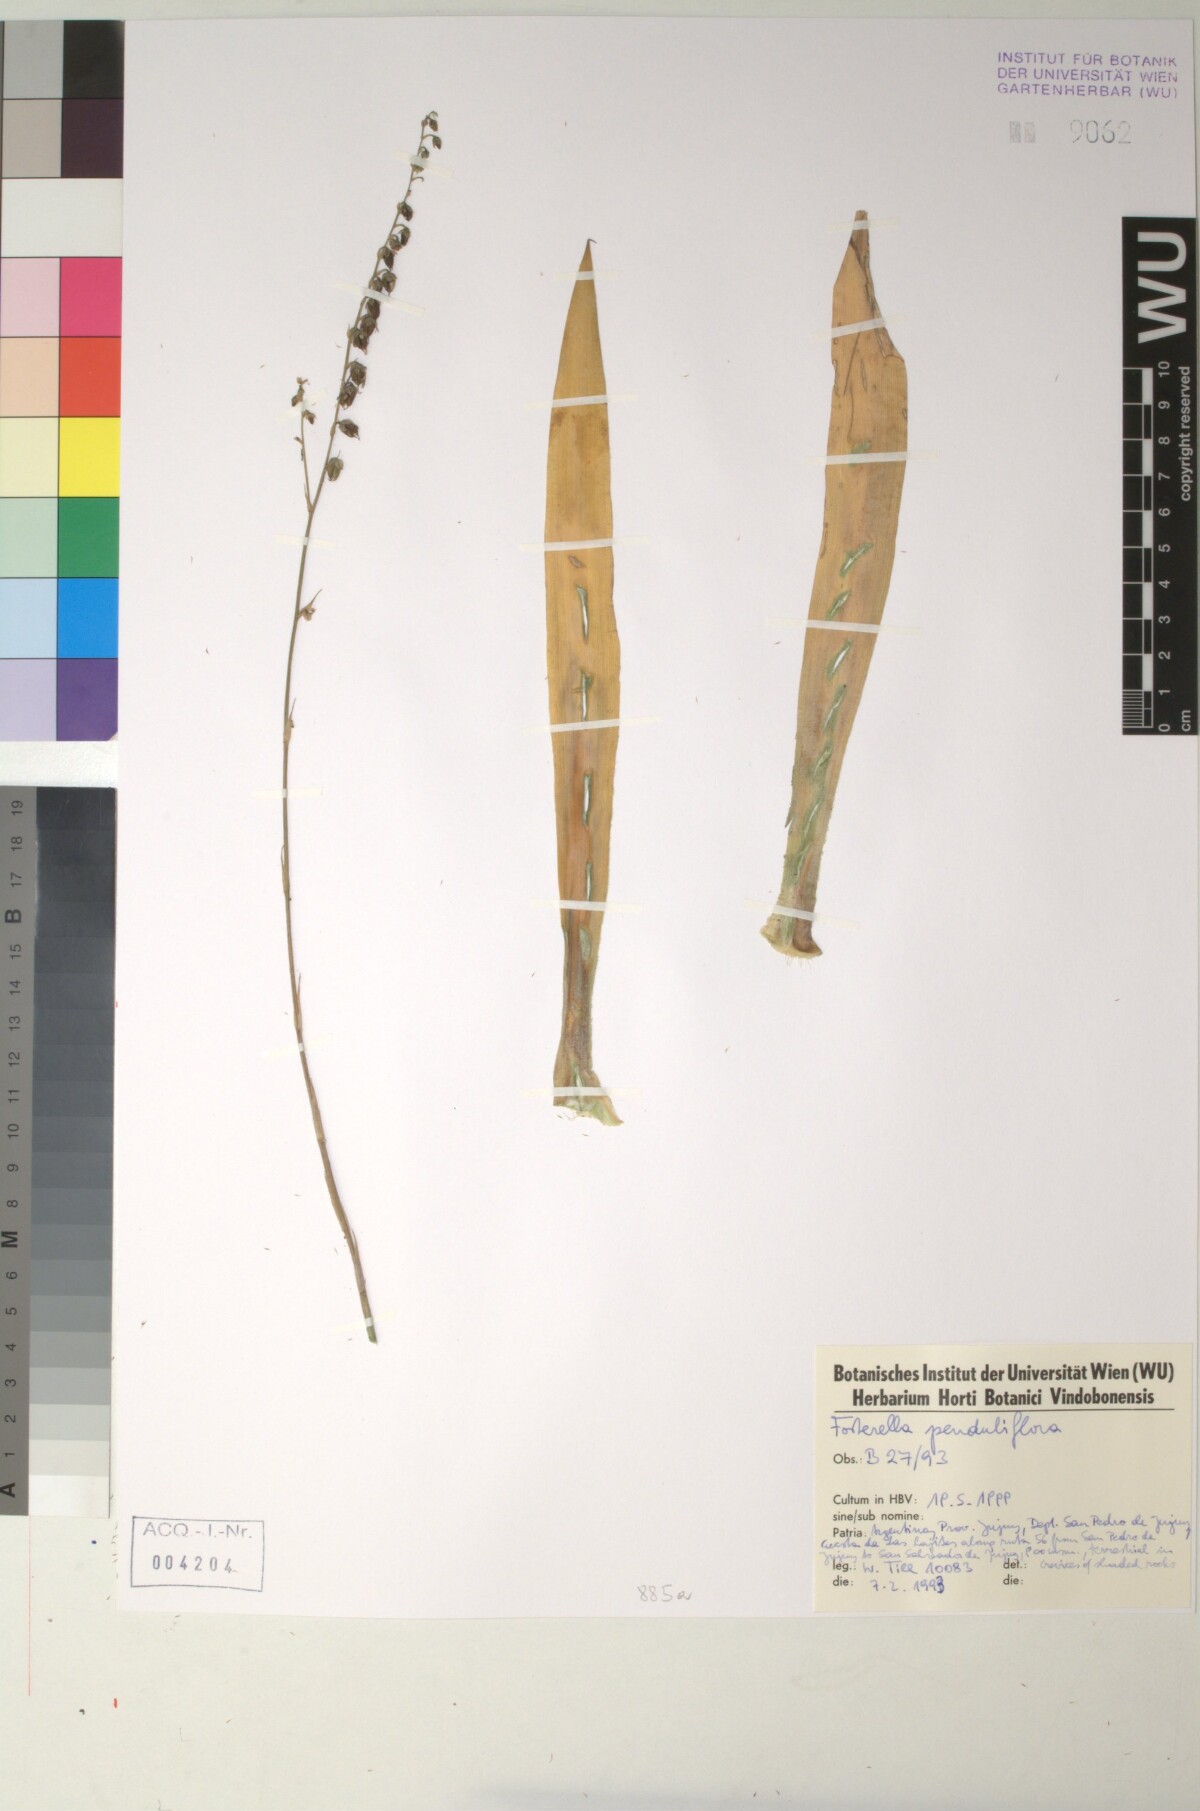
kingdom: Plantae
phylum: Tracheophyta
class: Liliopsida
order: Poales
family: Bromeliaceae
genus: Fosterella
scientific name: Fosterella penduliflora
